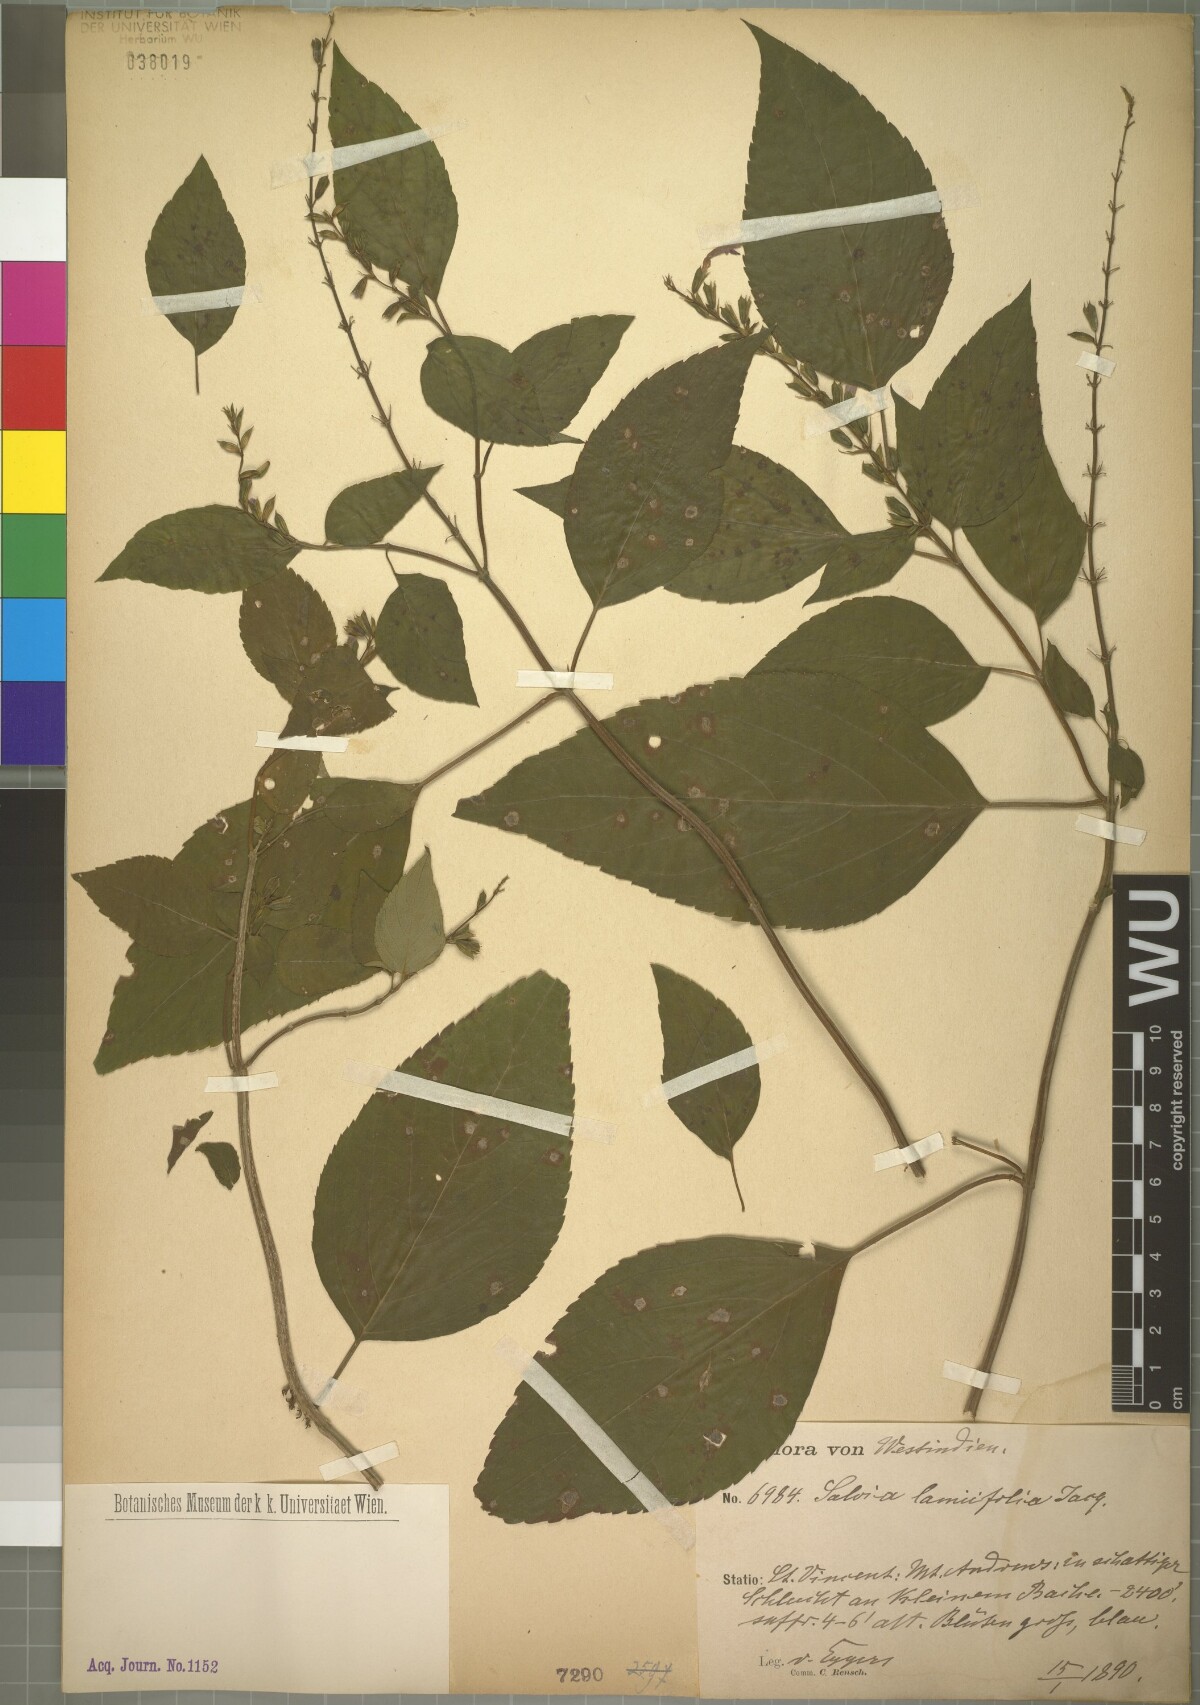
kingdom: Plantae
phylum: Tracheophyta
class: Magnoliopsida
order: Lamiales
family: Lamiaceae
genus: Salvia
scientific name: Salvia lamiifolia
